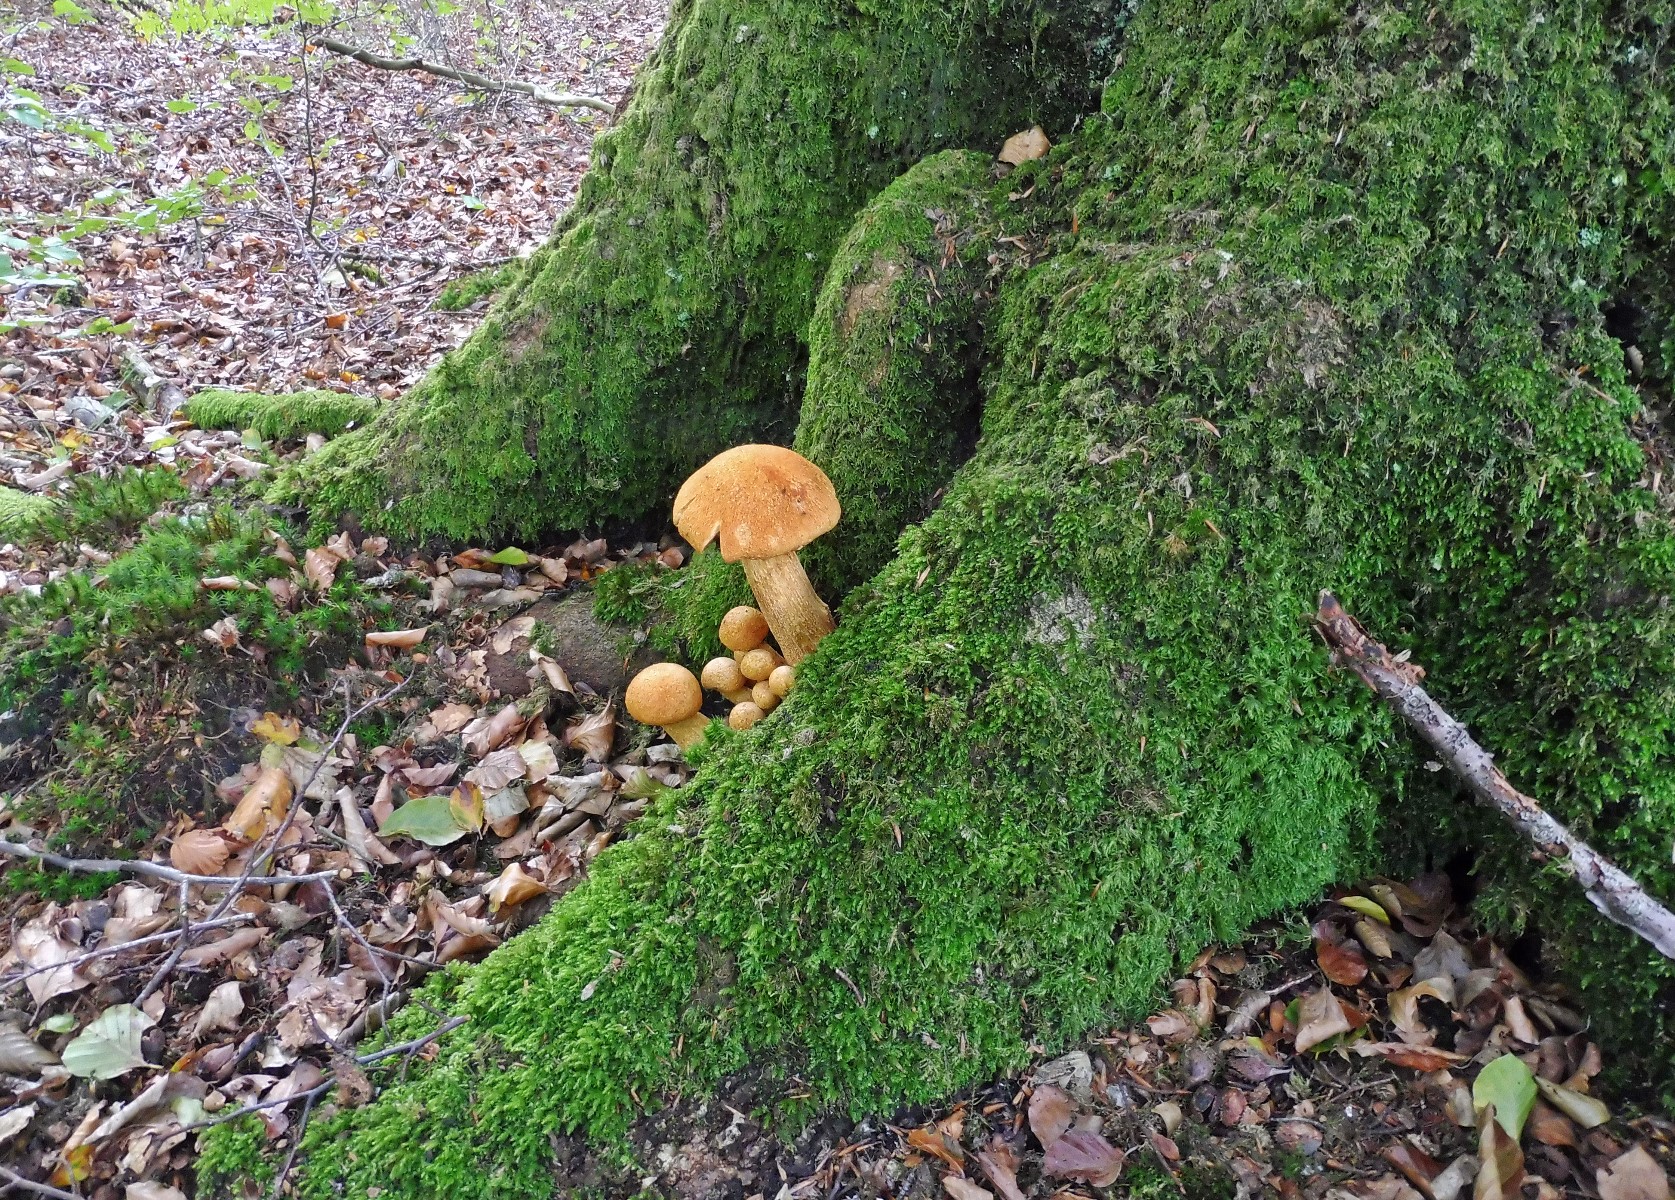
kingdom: Fungi
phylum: Basidiomycota
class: Agaricomycetes
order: Agaricales
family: Hymenogastraceae
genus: Gymnopilus
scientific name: Gymnopilus spectabilis
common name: fibret flammehat
